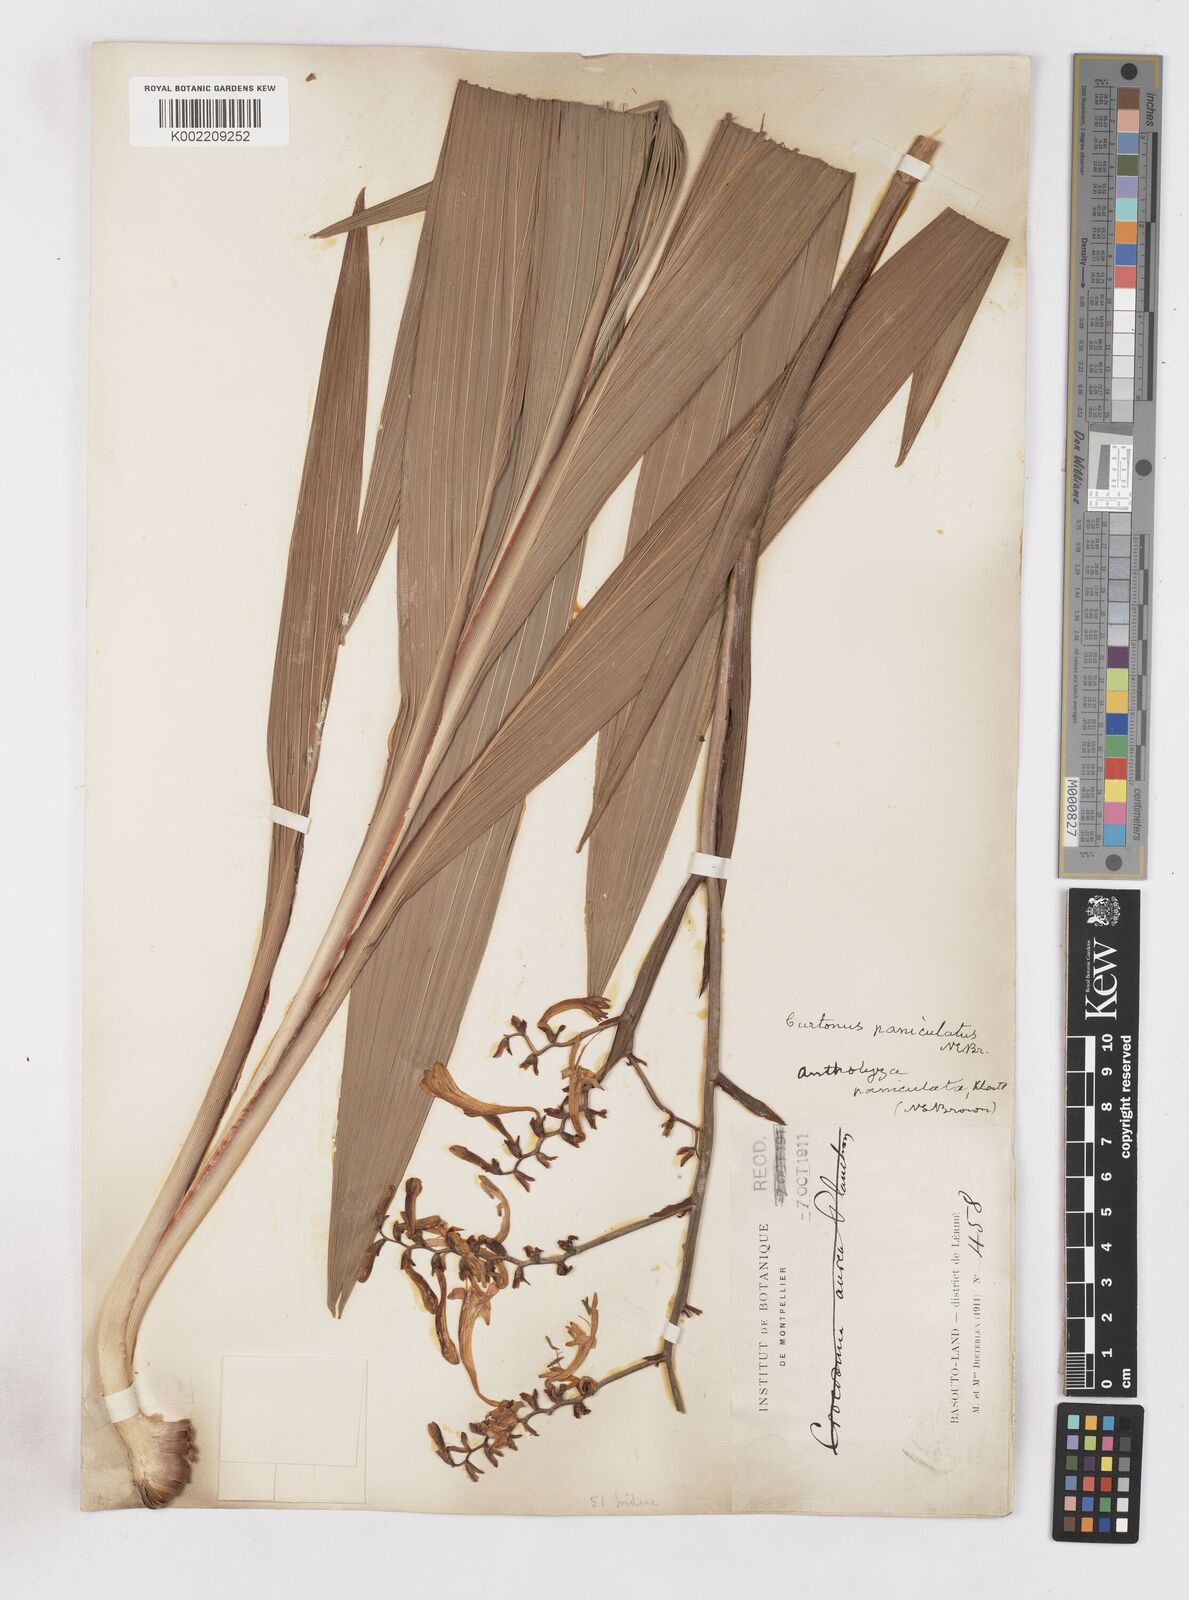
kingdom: Plantae
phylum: Tracheophyta
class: Liliopsida
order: Asparagales
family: Iridaceae
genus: Crocosmia
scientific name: Crocosmia paniculata
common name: Aunt eliza
